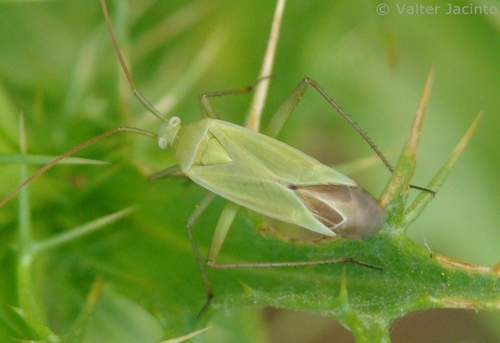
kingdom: Animalia
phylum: Arthropoda
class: Insecta
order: Hemiptera
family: Miridae
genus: Thiomiris
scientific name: Thiomiris sulphureus
